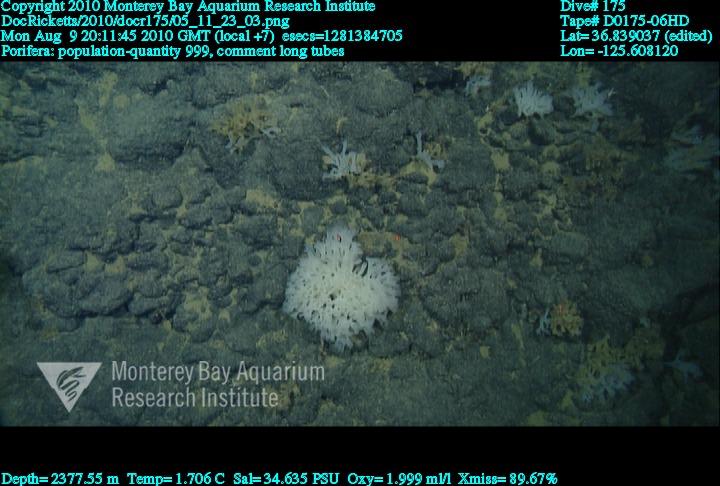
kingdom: Animalia
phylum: Porifera
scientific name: Porifera
